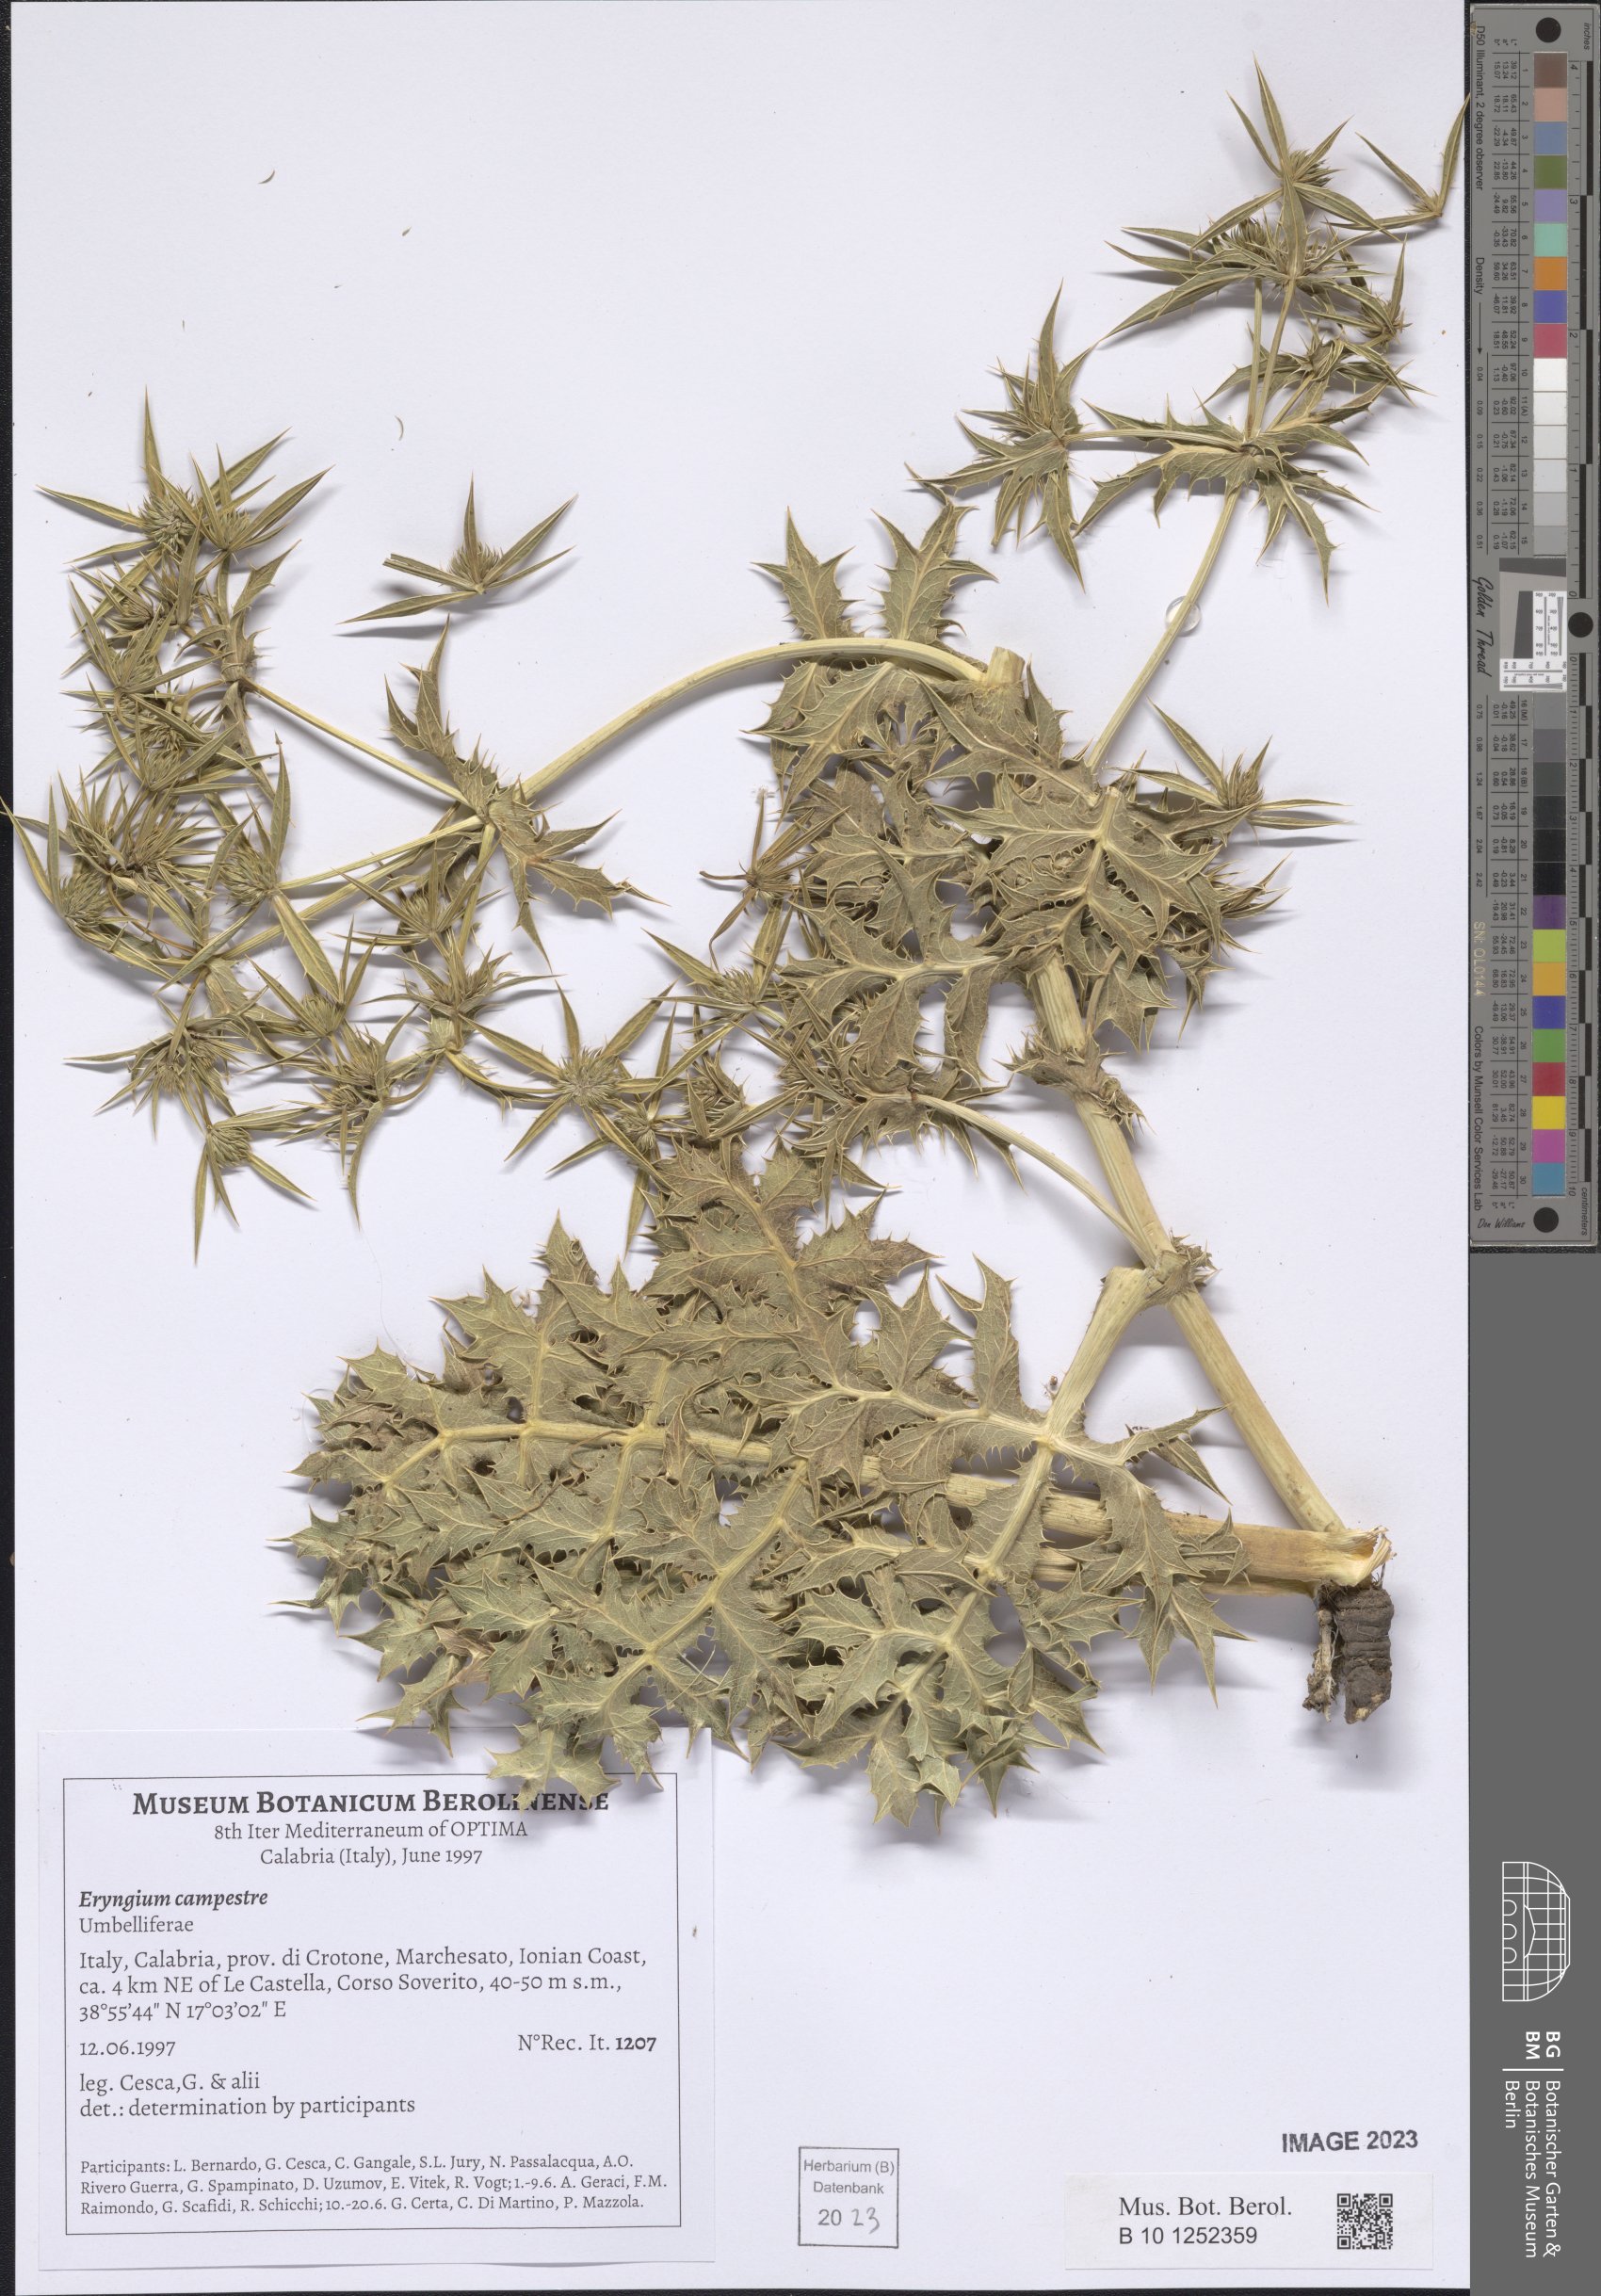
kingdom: Plantae
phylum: Tracheophyta
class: Magnoliopsida
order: Apiales
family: Apiaceae
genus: Eryngium
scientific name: Eryngium campestre
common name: Field eryngo
